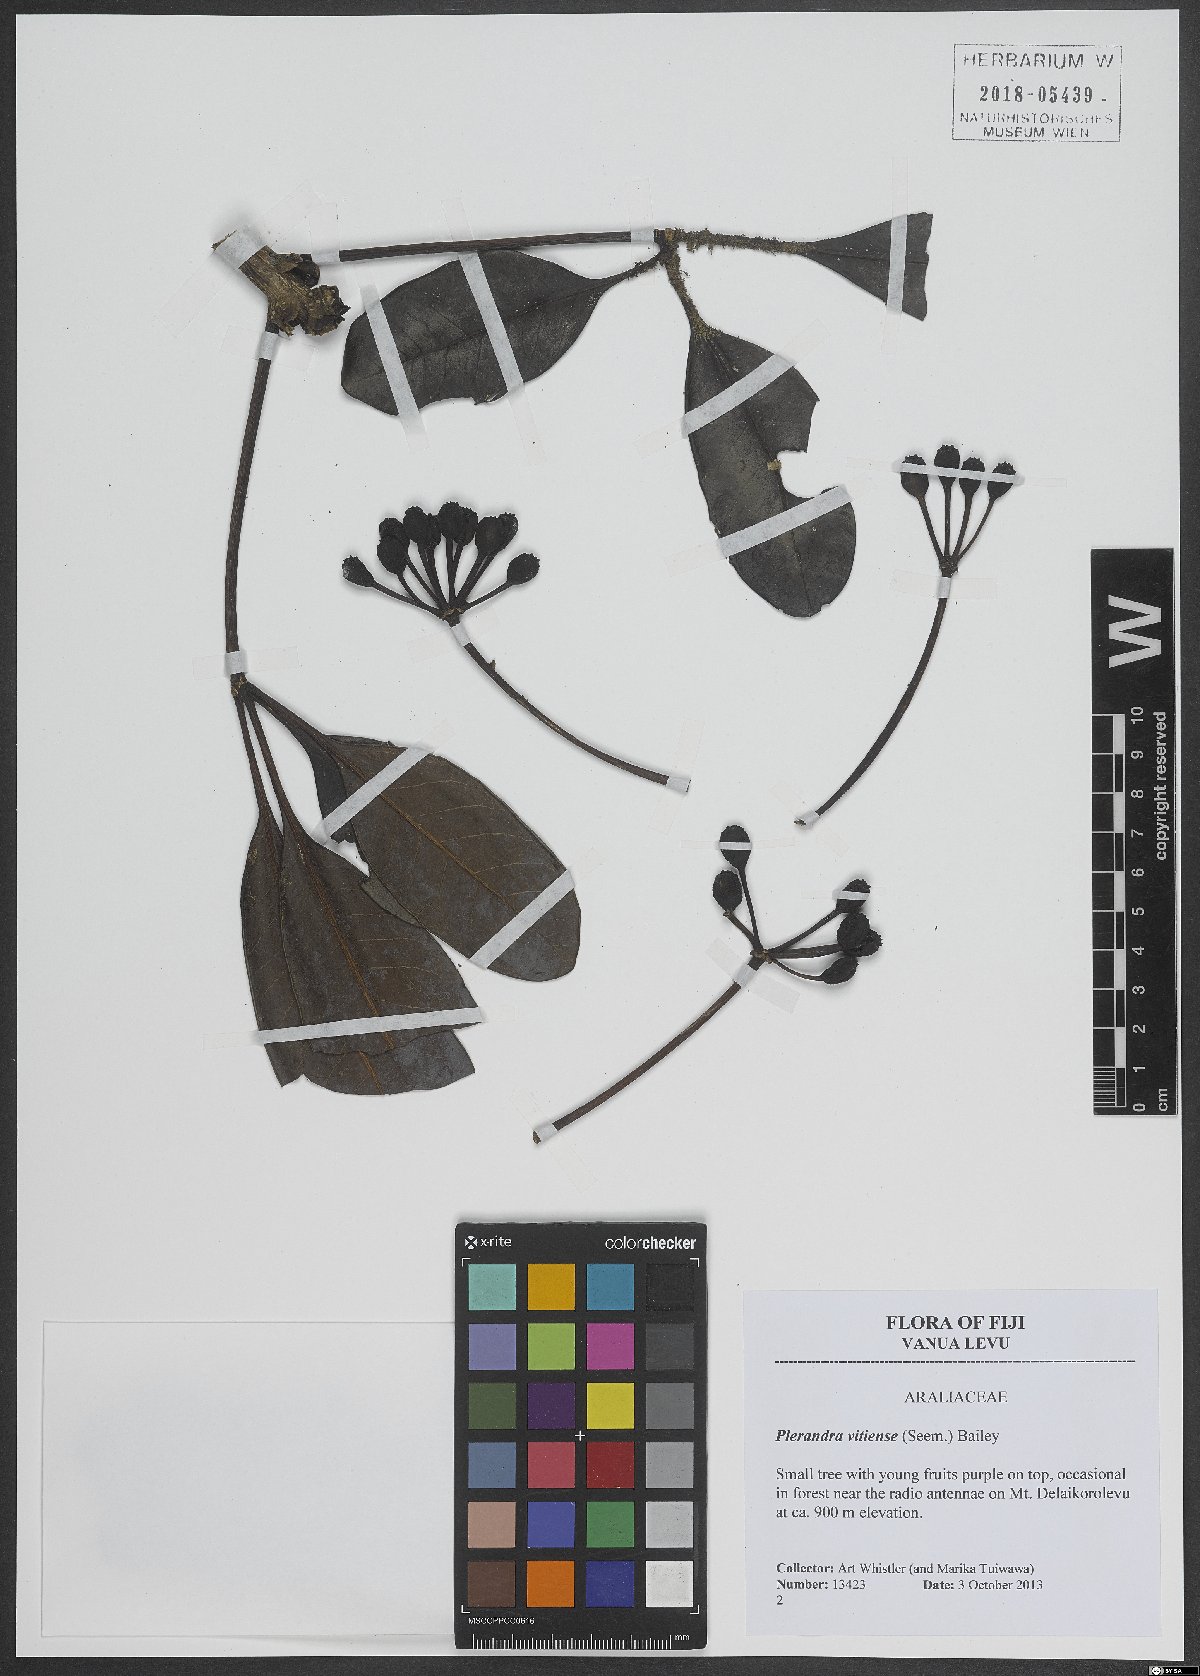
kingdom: Plantae
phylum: Tracheophyta
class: Magnoliopsida
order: Apiales
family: Araliaceae
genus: Plerandra
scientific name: Plerandra vitiensis
